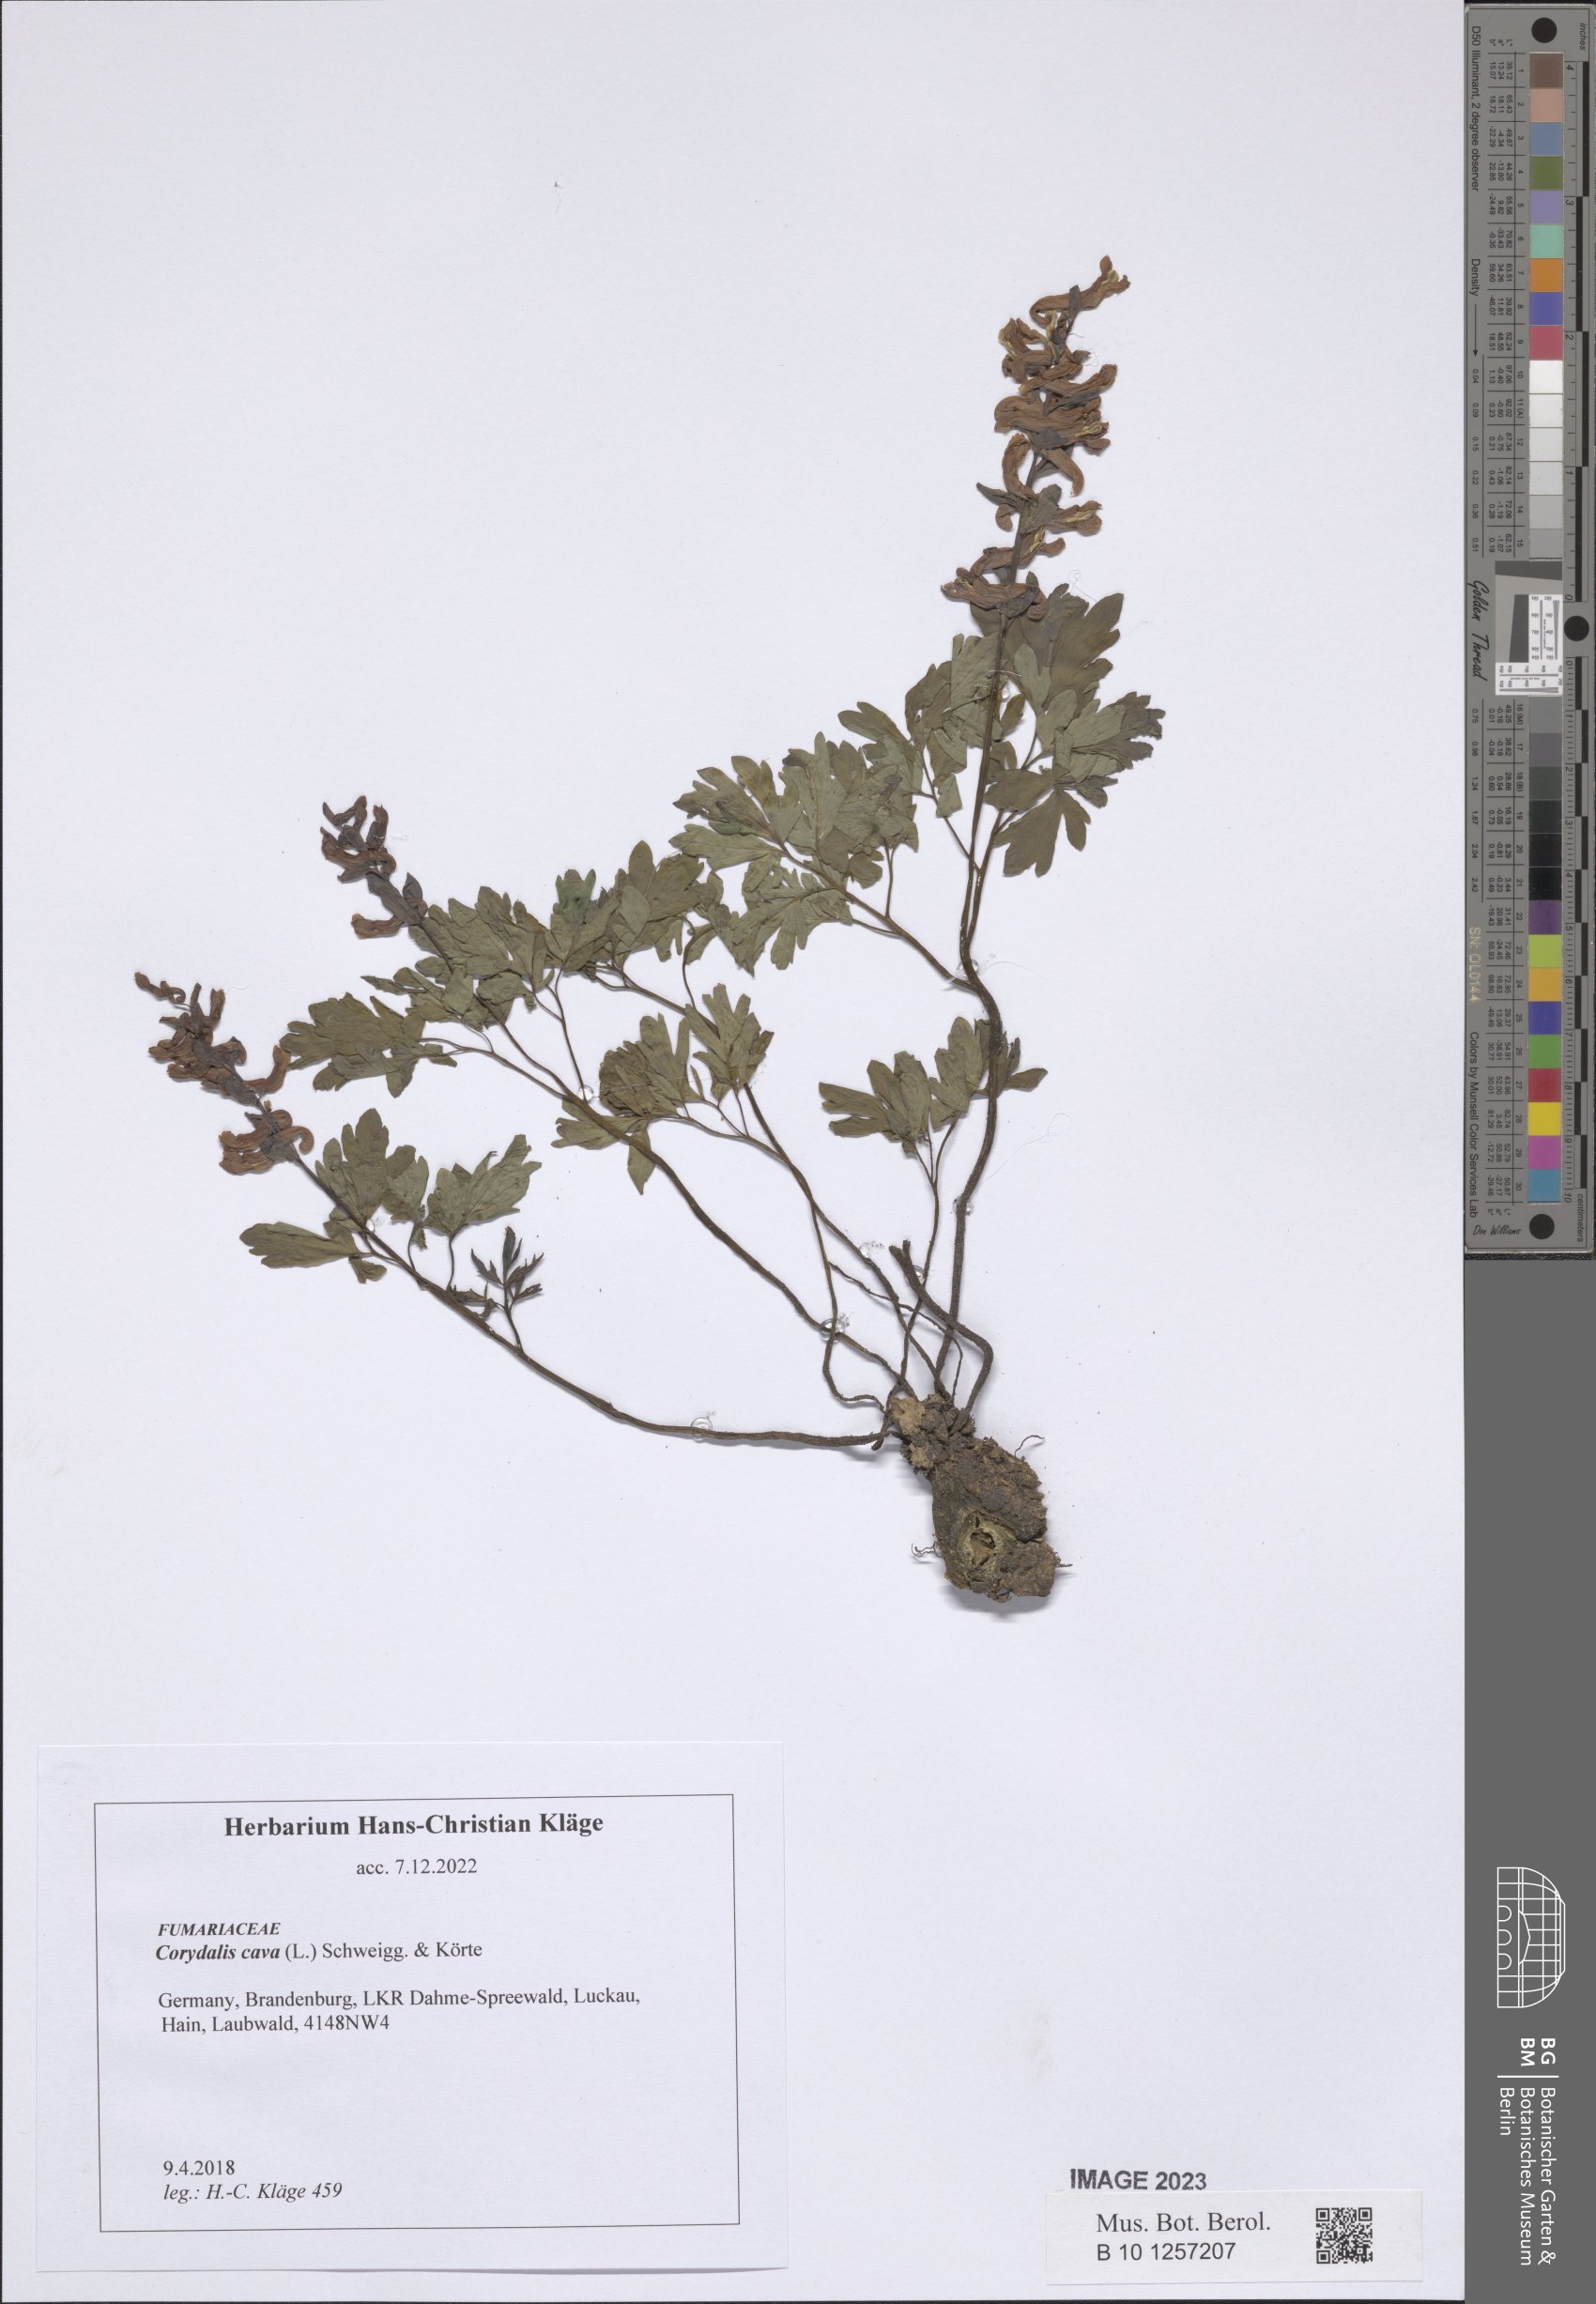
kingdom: Plantae
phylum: Tracheophyta
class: Magnoliopsida
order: Ranunculales
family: Papaveraceae
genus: Corydalis
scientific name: Corydalis cava
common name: Hollowroot
